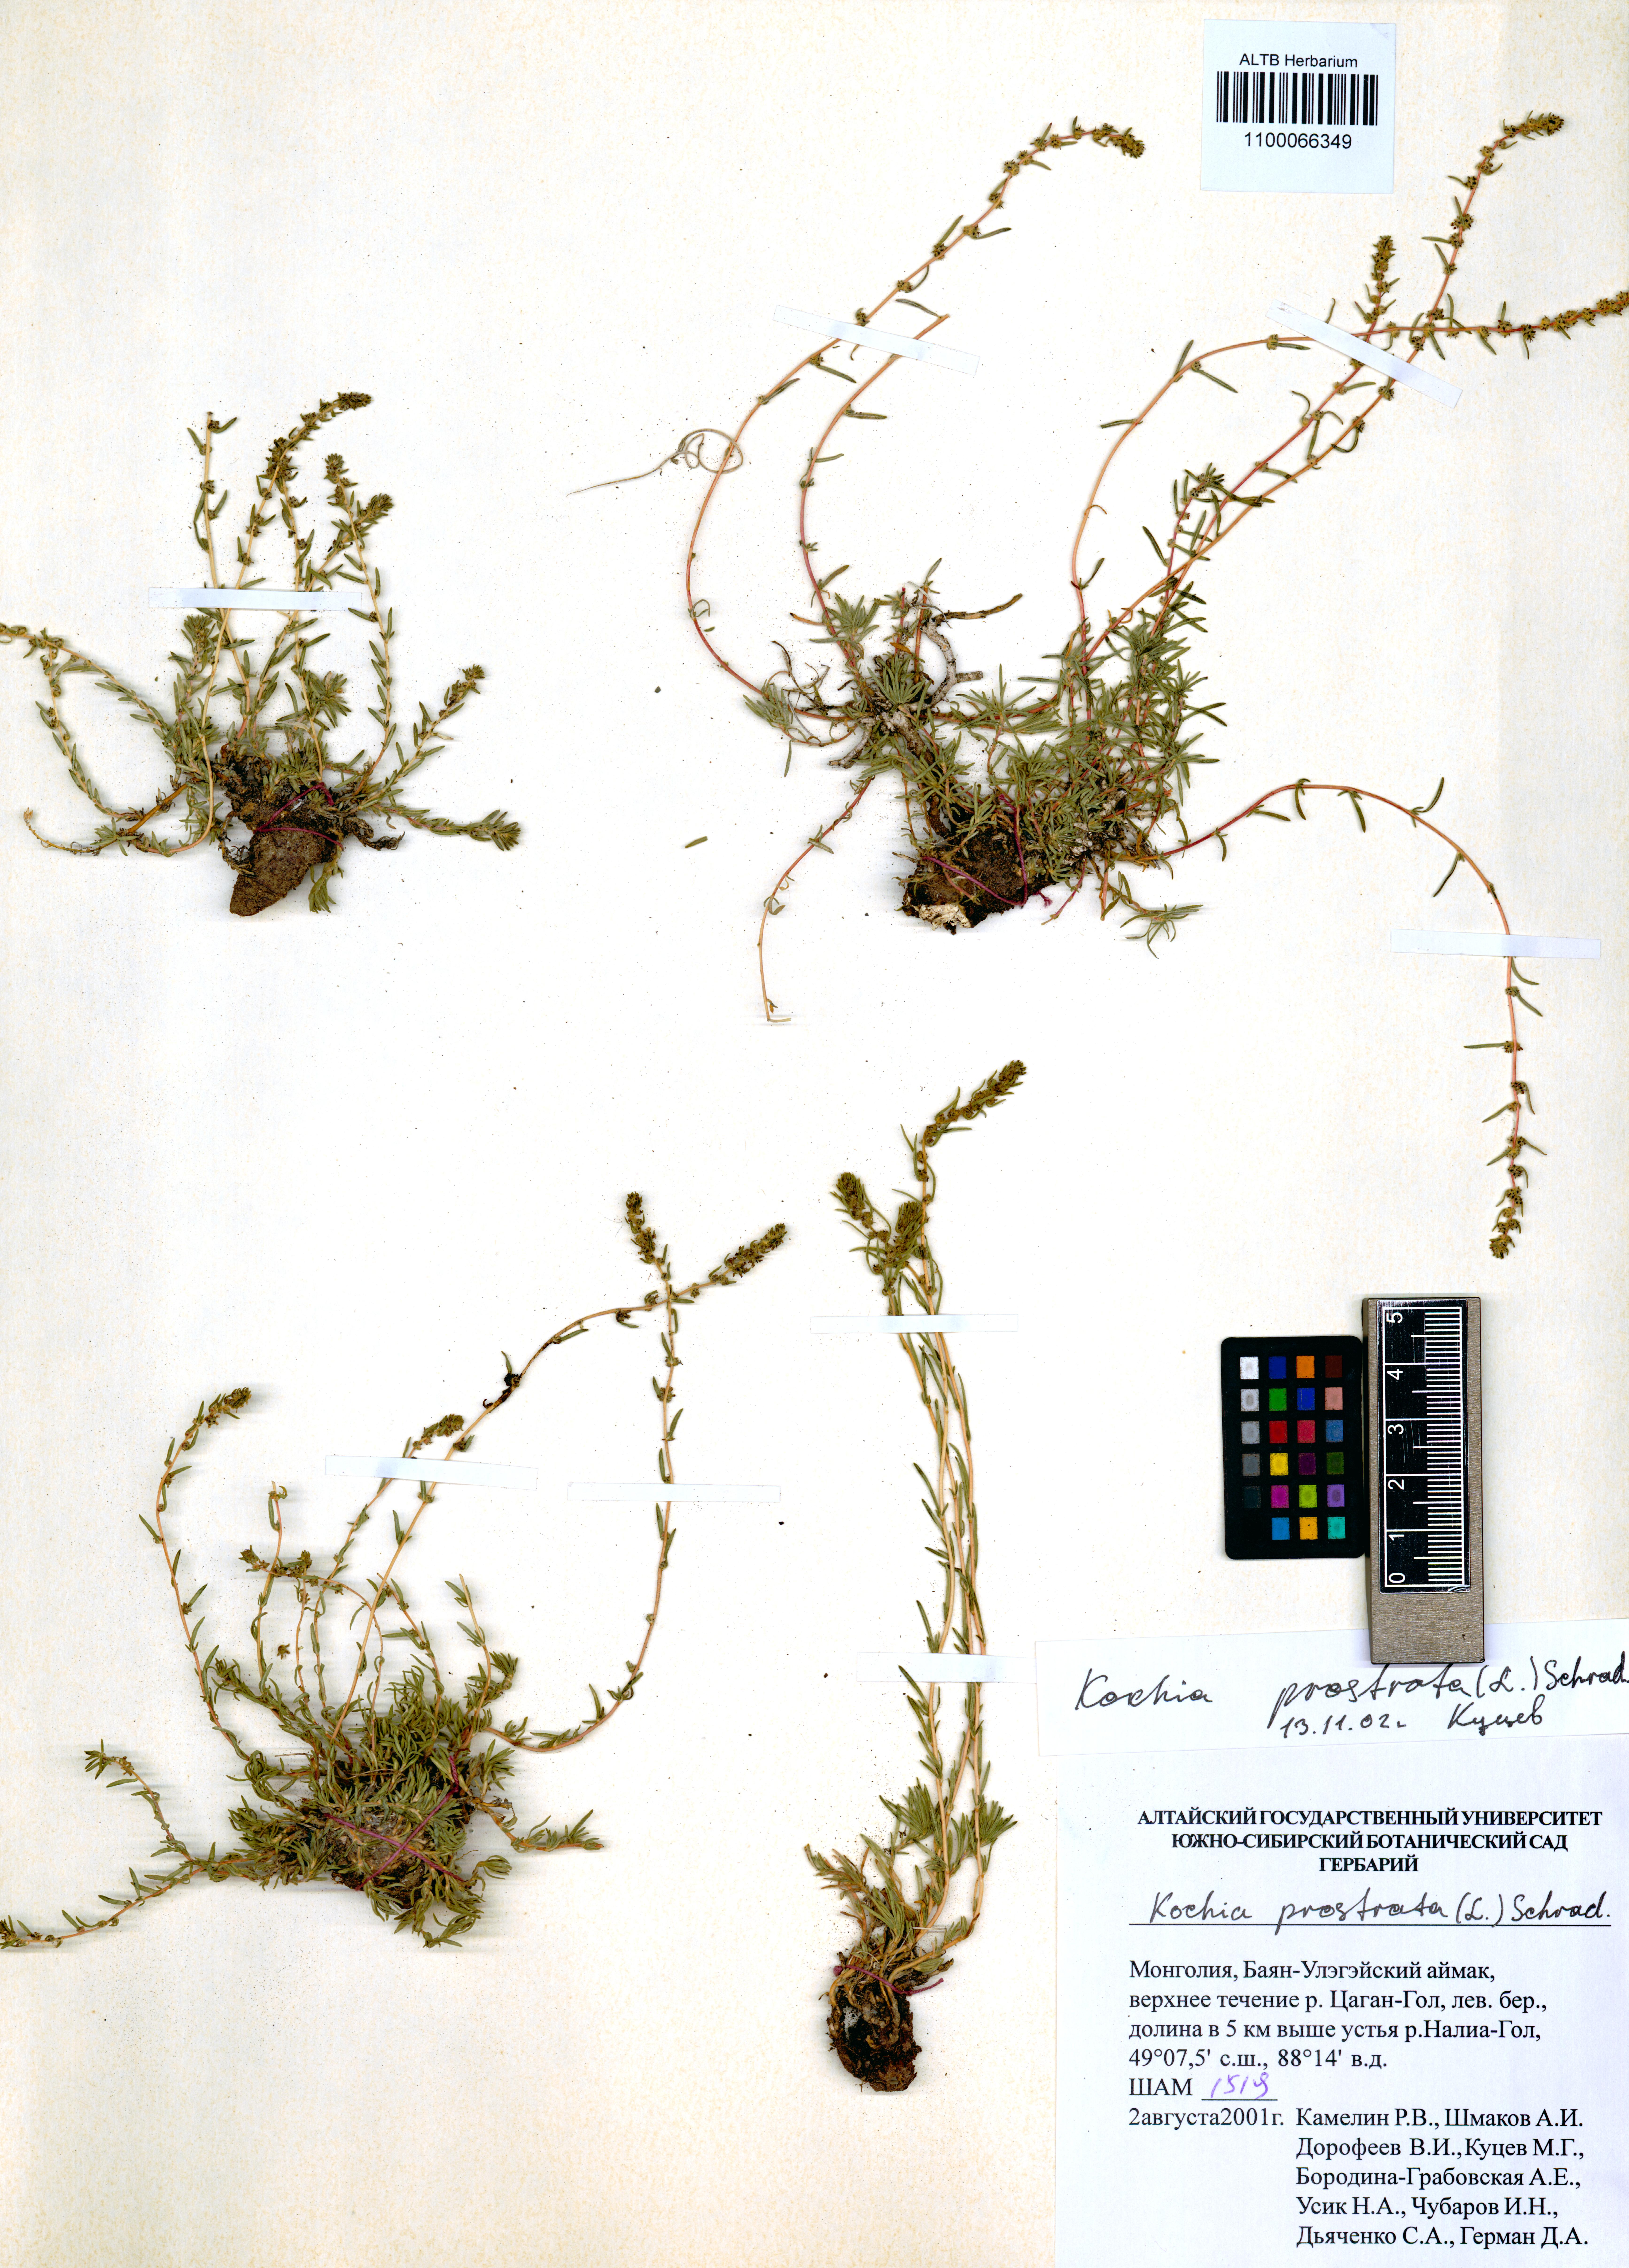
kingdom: Plantae
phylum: Tracheophyta
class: Magnoliopsida
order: Caryophyllales
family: Amaranthaceae
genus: Bassia
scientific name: Bassia prostrata
